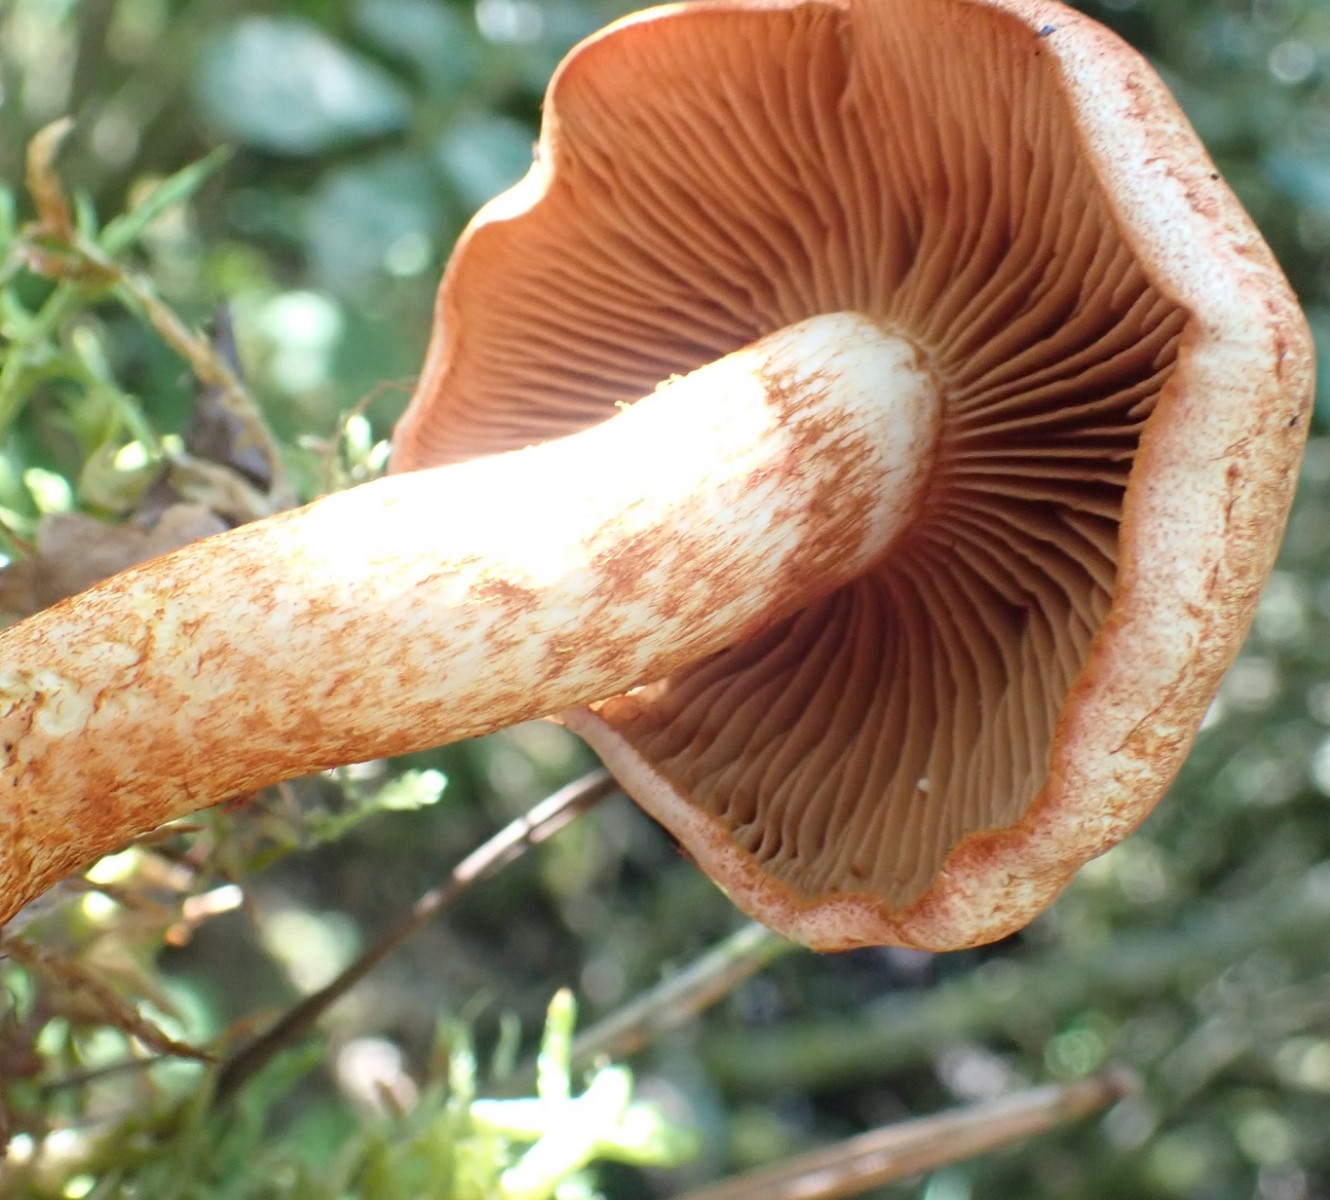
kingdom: Fungi
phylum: Basidiomycota
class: Agaricomycetes
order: Agaricales
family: Cortinariaceae
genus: Cortinarius
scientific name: Cortinarius bolaris
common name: cinnoberskællet slørhat
